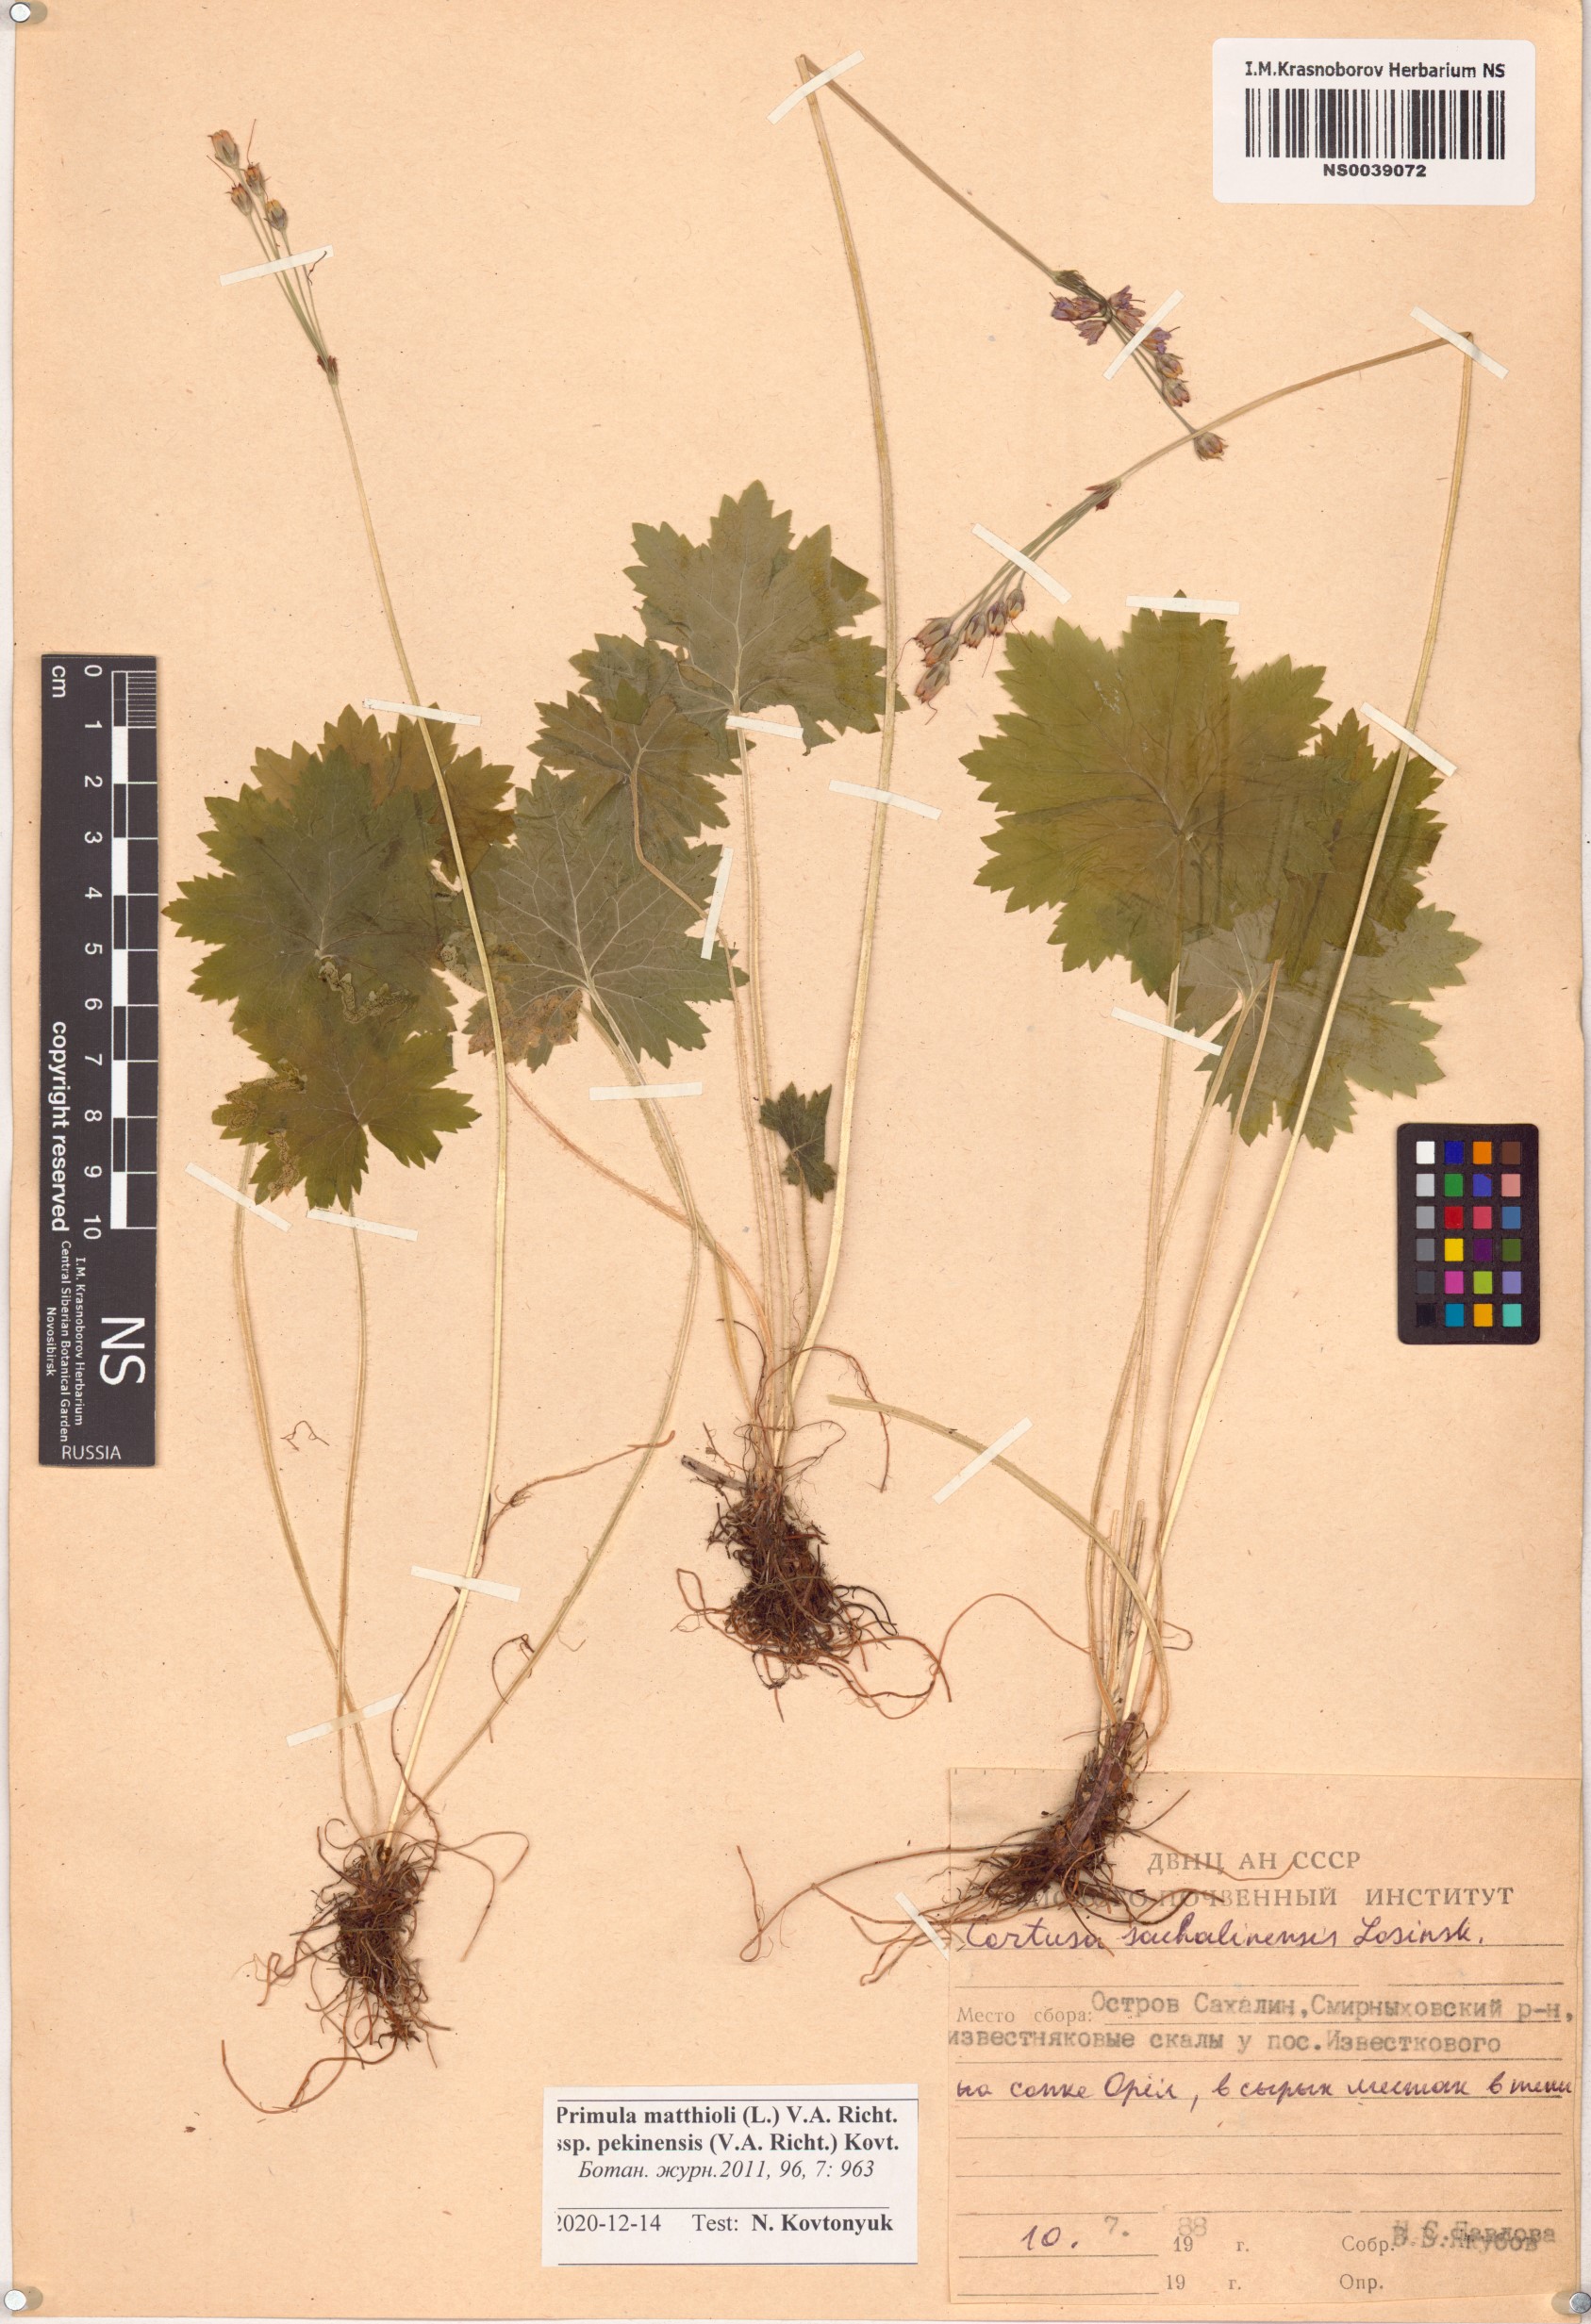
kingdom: Plantae
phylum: Tracheophyta
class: Magnoliopsida
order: Ericales
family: Primulaceae
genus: Primula
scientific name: Primula matthioli
